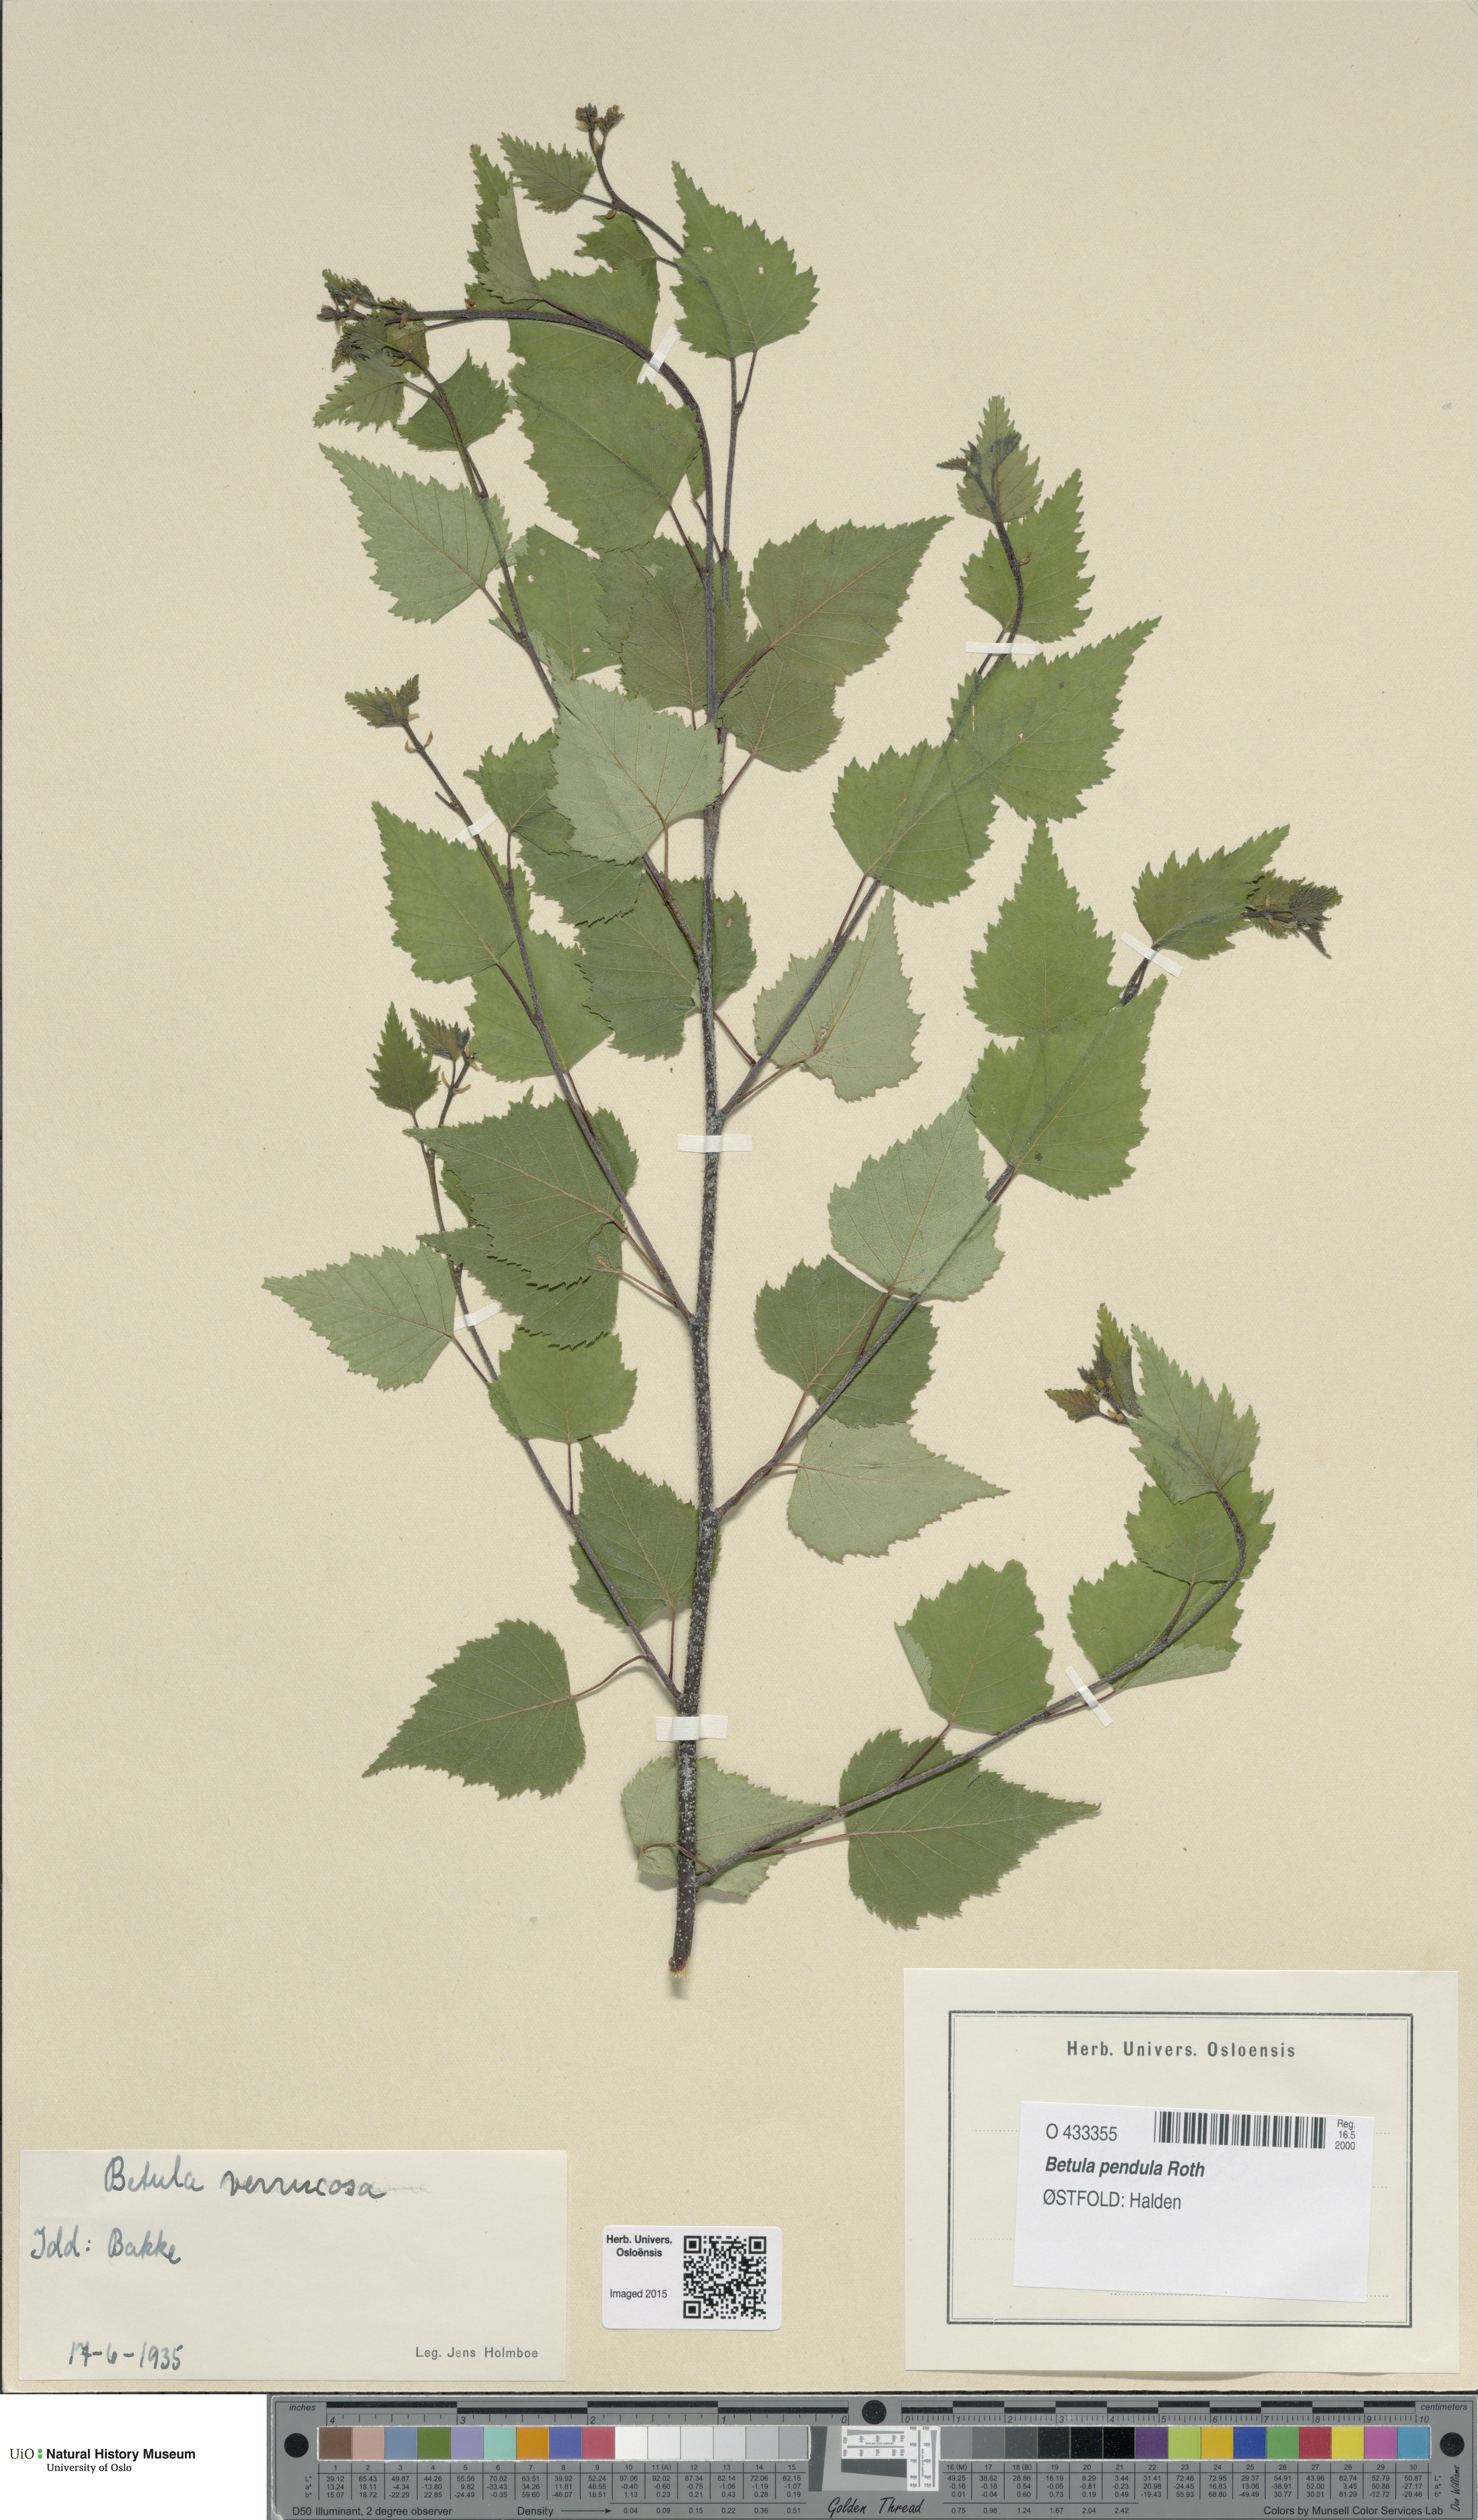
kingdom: Plantae
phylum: Tracheophyta
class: Magnoliopsida
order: Fagales
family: Betulaceae
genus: Betula
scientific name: Betula pendula
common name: Silver birch
